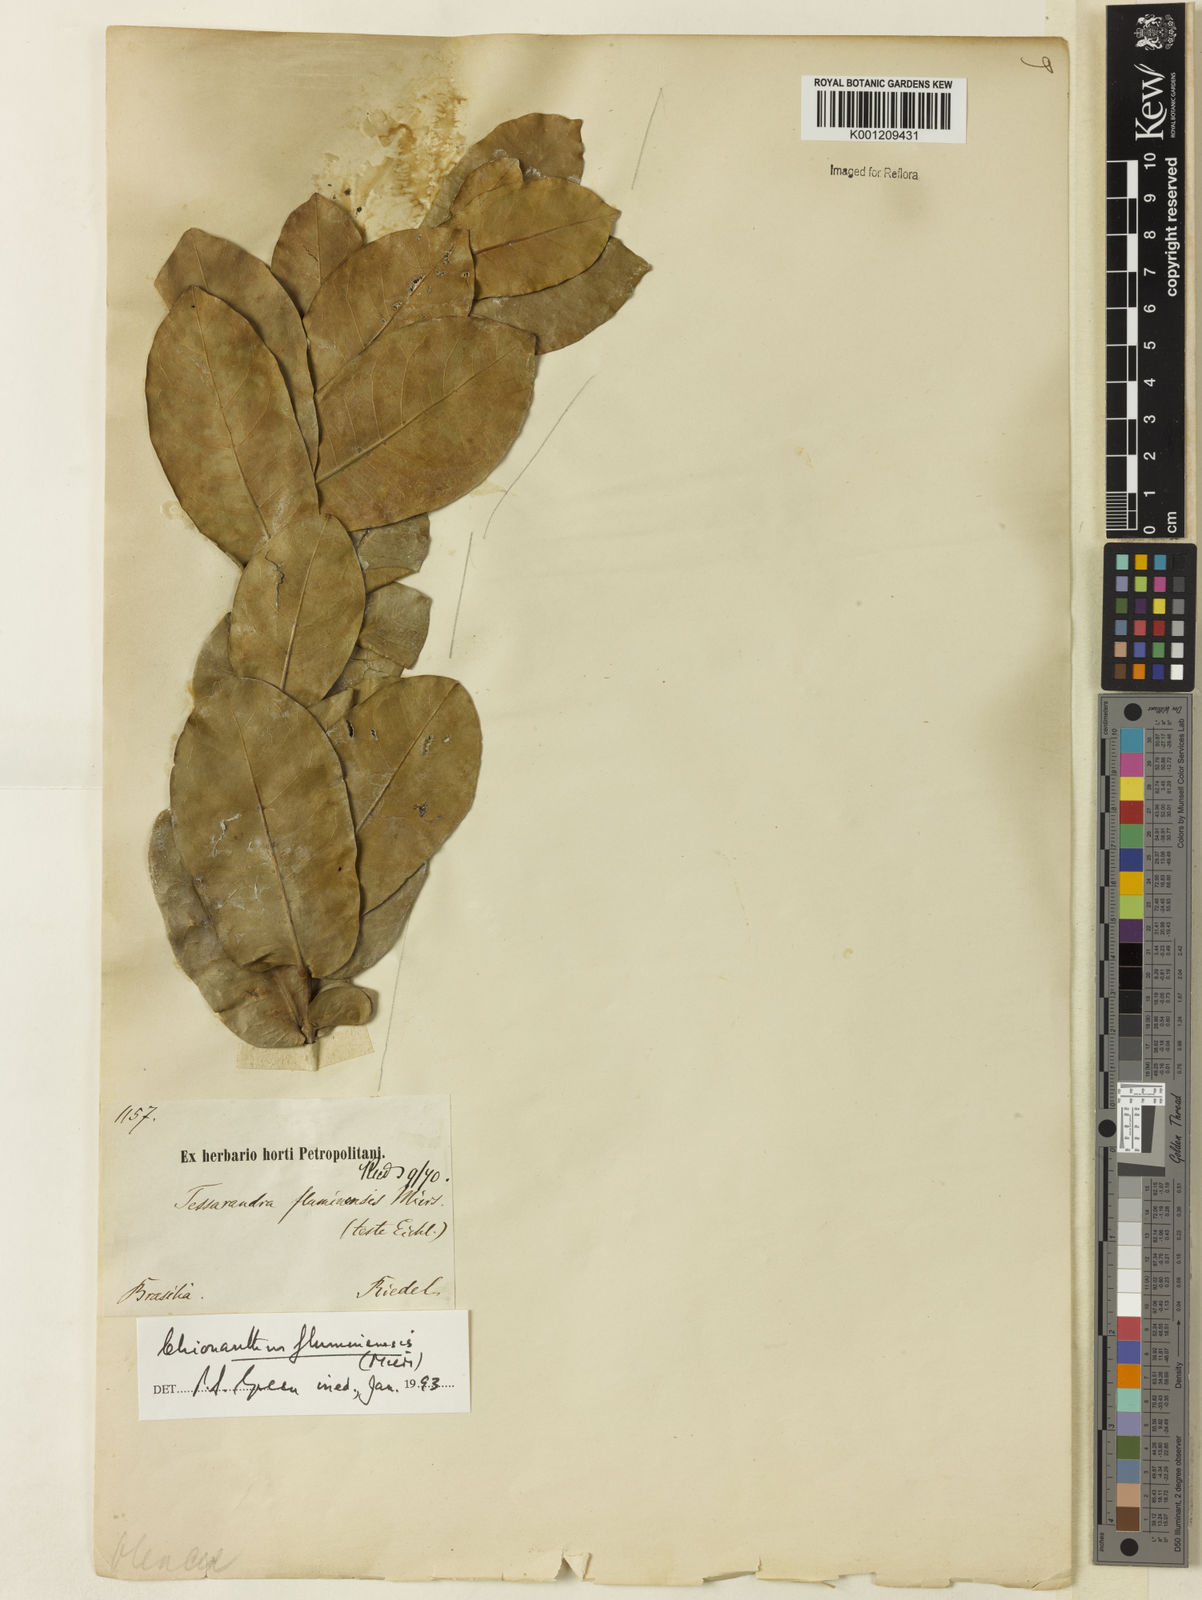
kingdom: Plantae
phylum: Tracheophyta
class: Magnoliopsida
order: Lamiales
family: Oleaceae
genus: Chionanthus
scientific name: Chionanthus fluminensis
